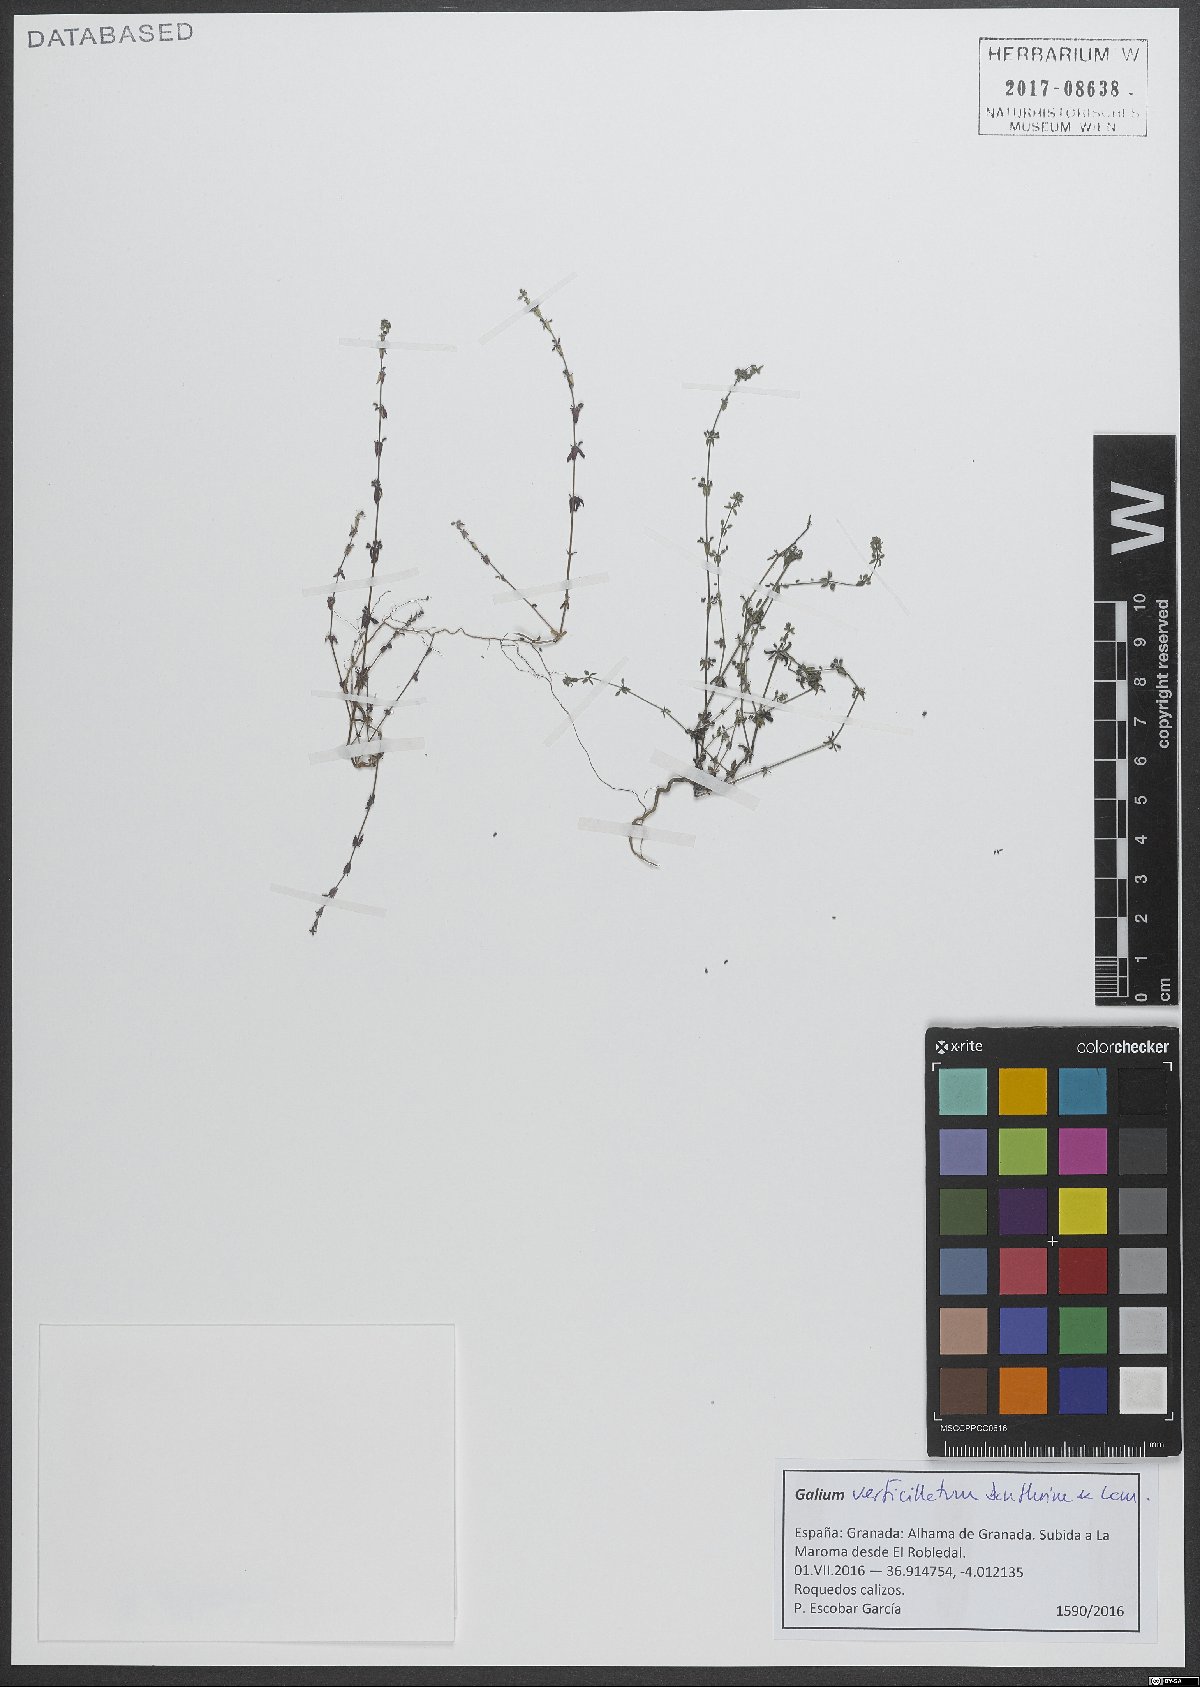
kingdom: Plantae
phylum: Tracheophyta
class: Magnoliopsida
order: Gentianales
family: Rubiaceae
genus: Galium
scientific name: Galium verticillatum
